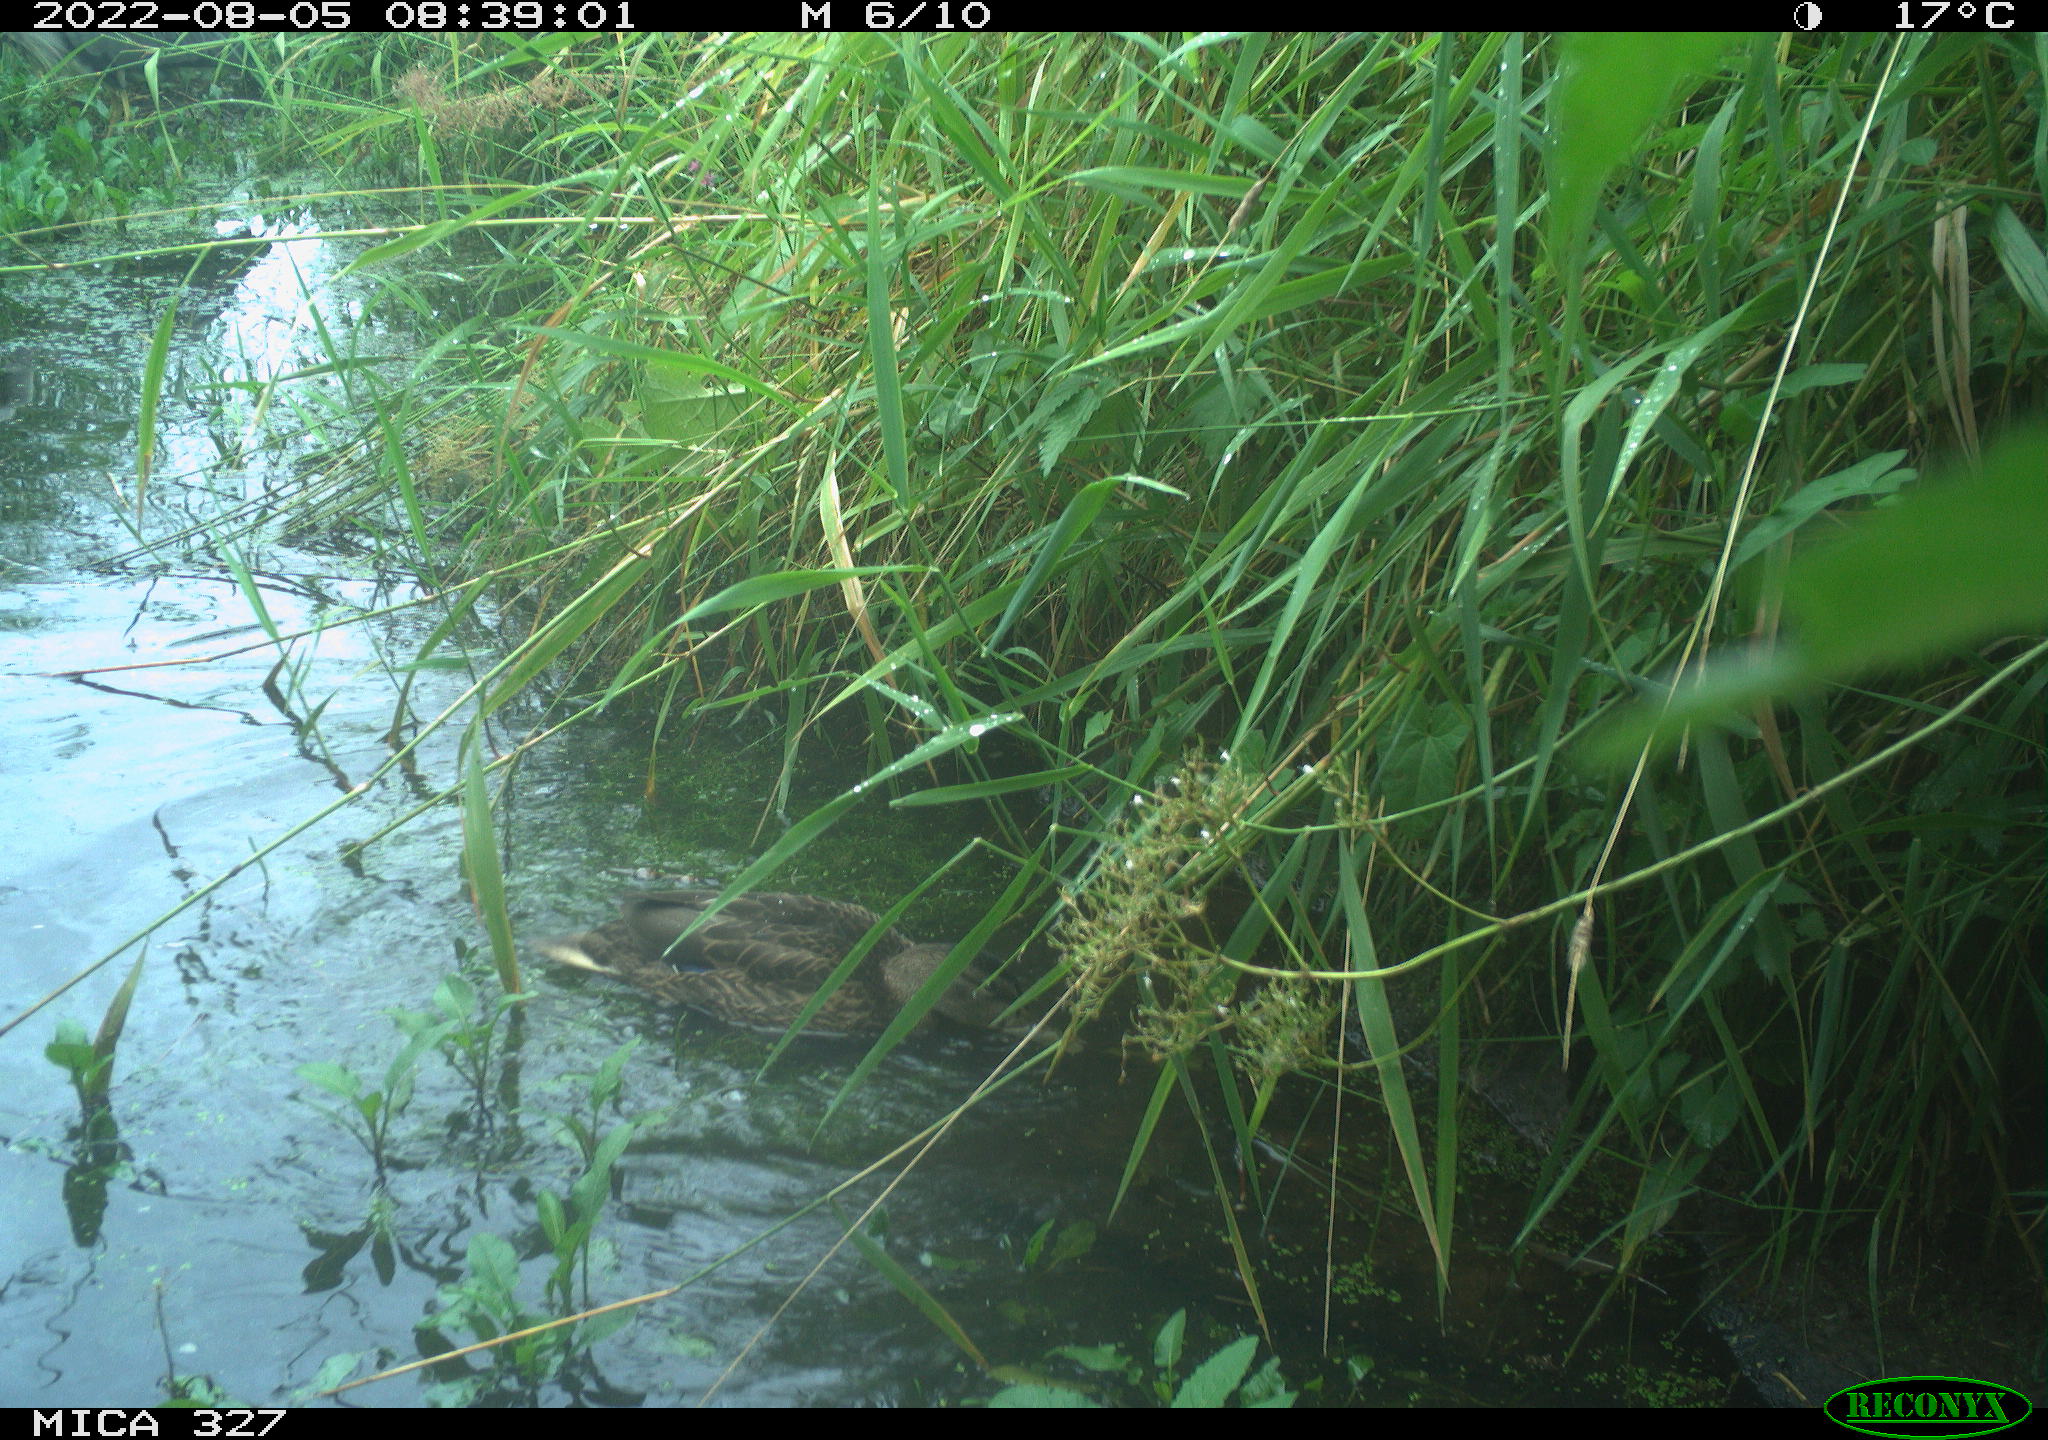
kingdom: Animalia
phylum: Chordata
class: Aves
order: Anseriformes
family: Anatidae
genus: Anas
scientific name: Anas
